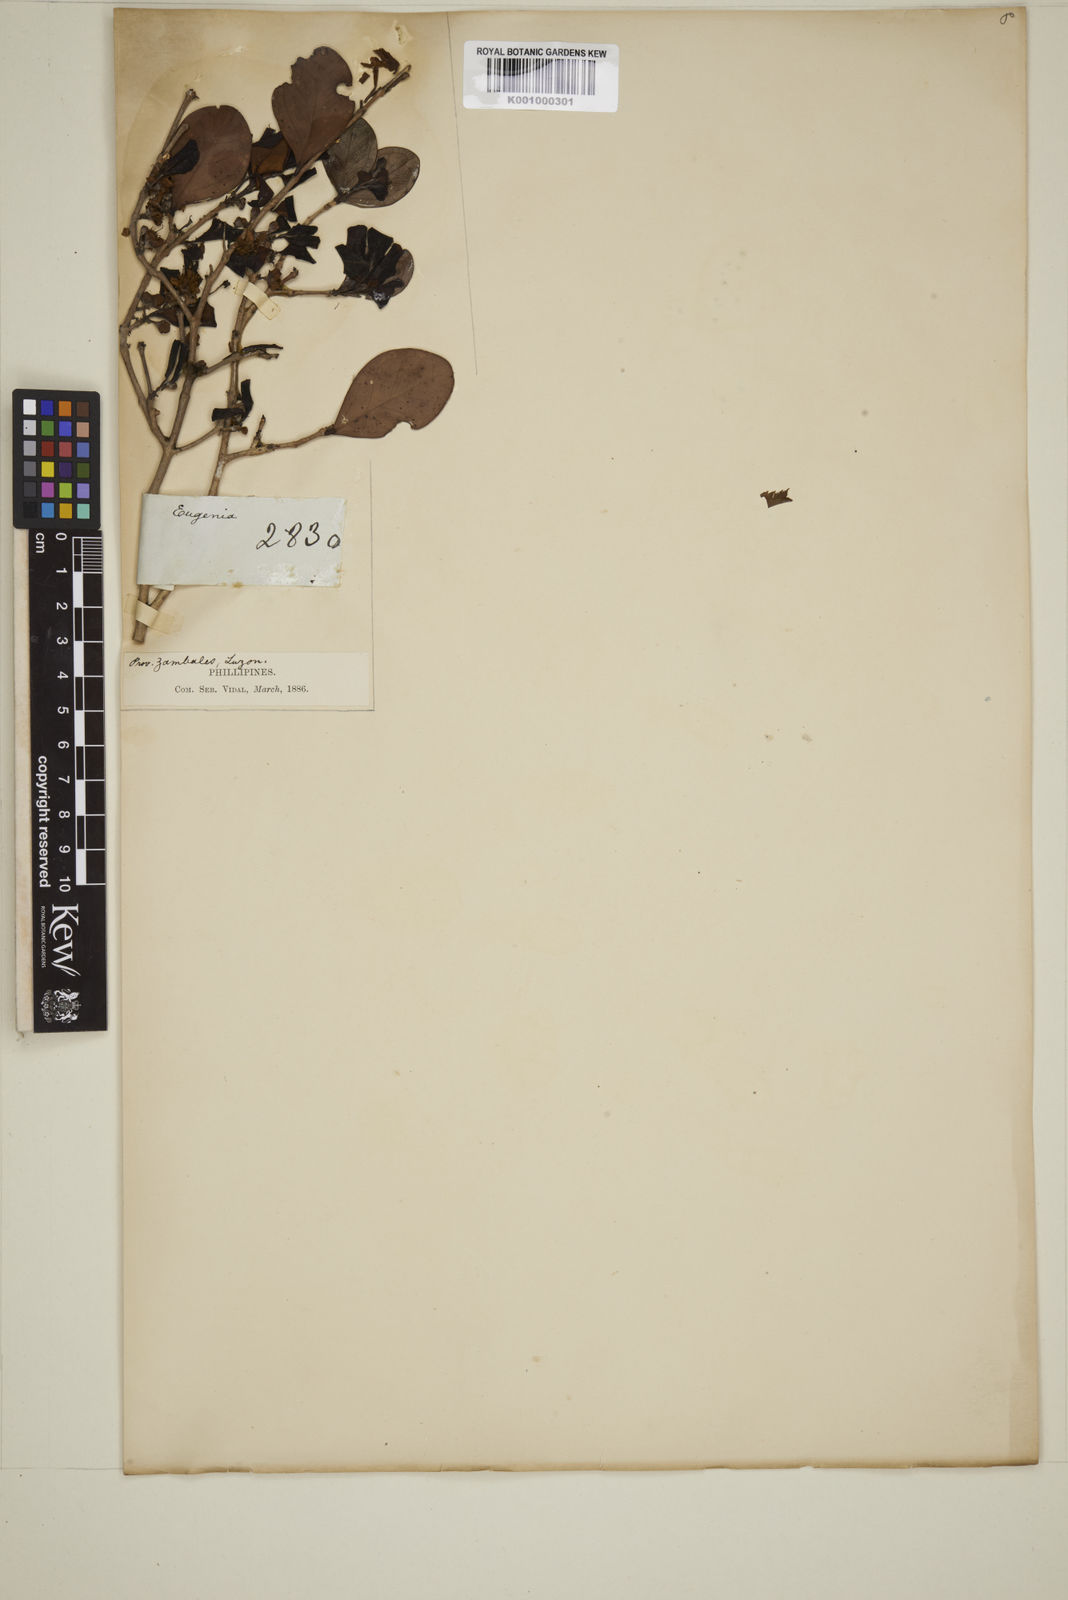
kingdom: Plantae
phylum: Tracheophyta
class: Magnoliopsida
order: Myrtales
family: Myrtaceae
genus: Eugenia
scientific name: Eugenia sargentii
